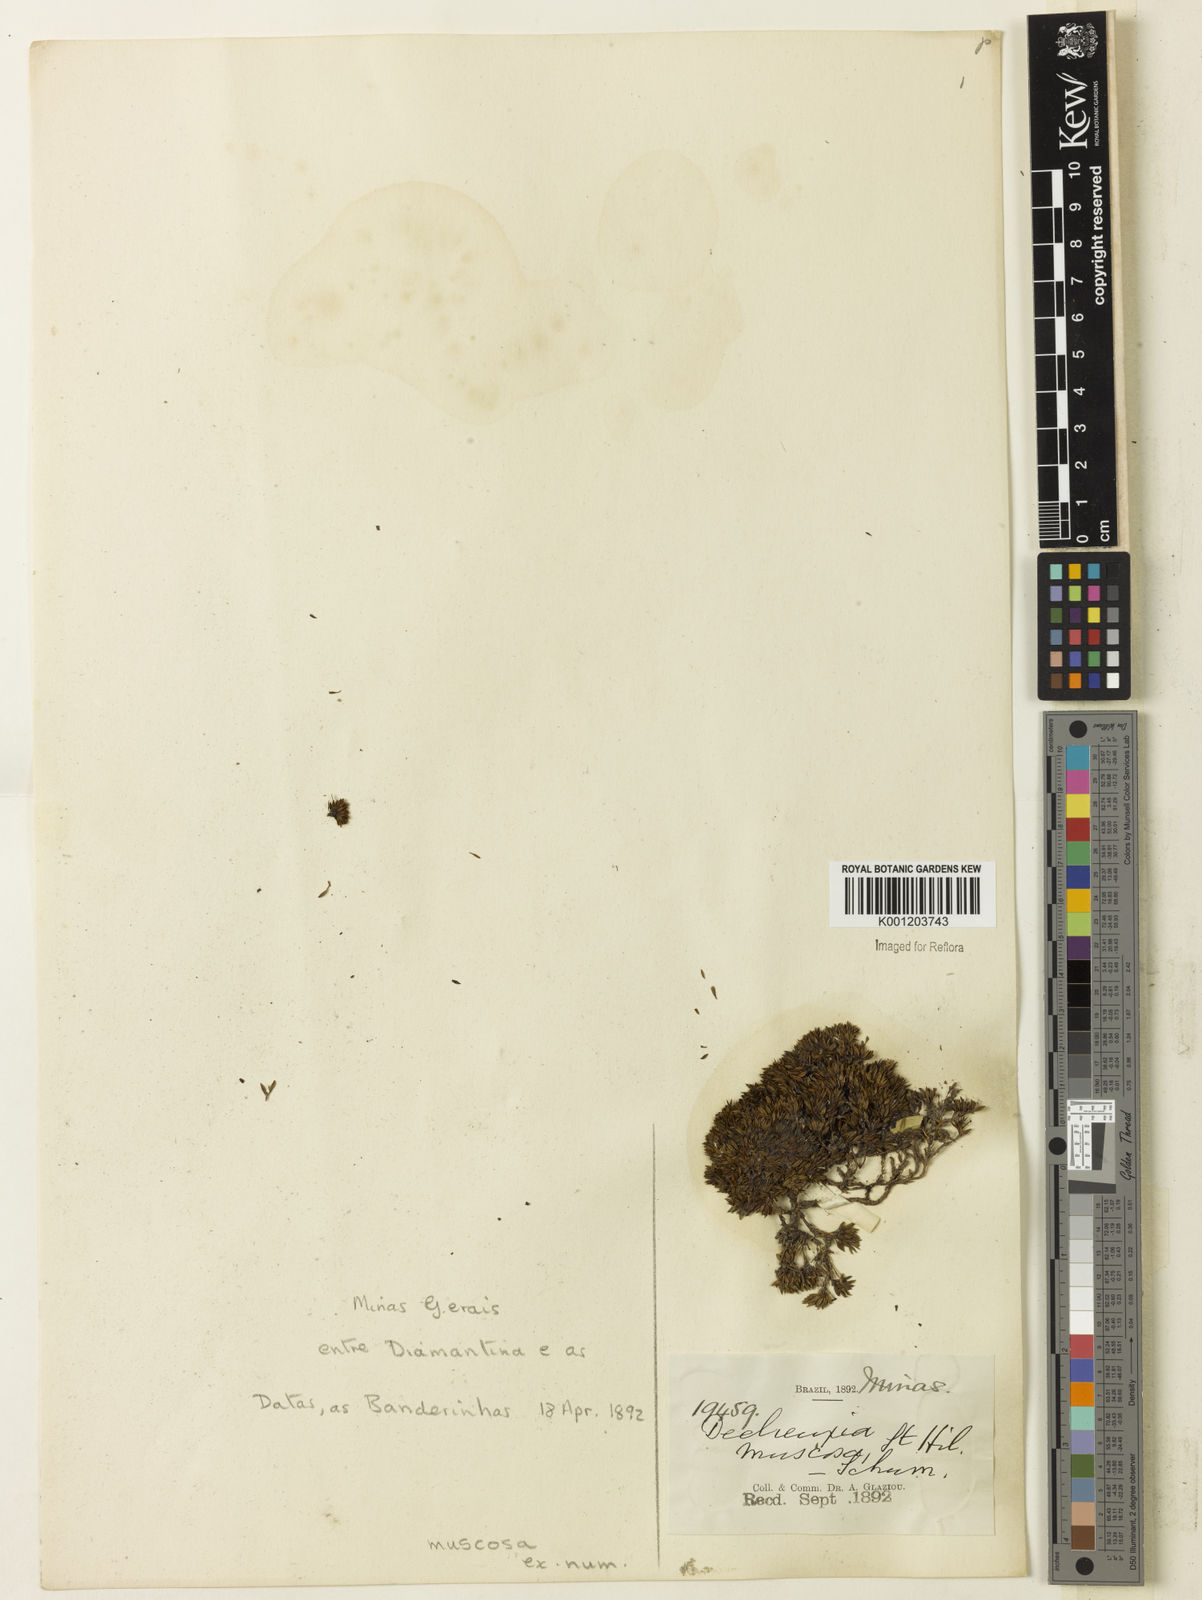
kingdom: Plantae
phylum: Tracheophyta
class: Magnoliopsida
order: Gentianales
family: Rubiaceae
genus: Declieuxia
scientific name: Declieuxia muscosa
